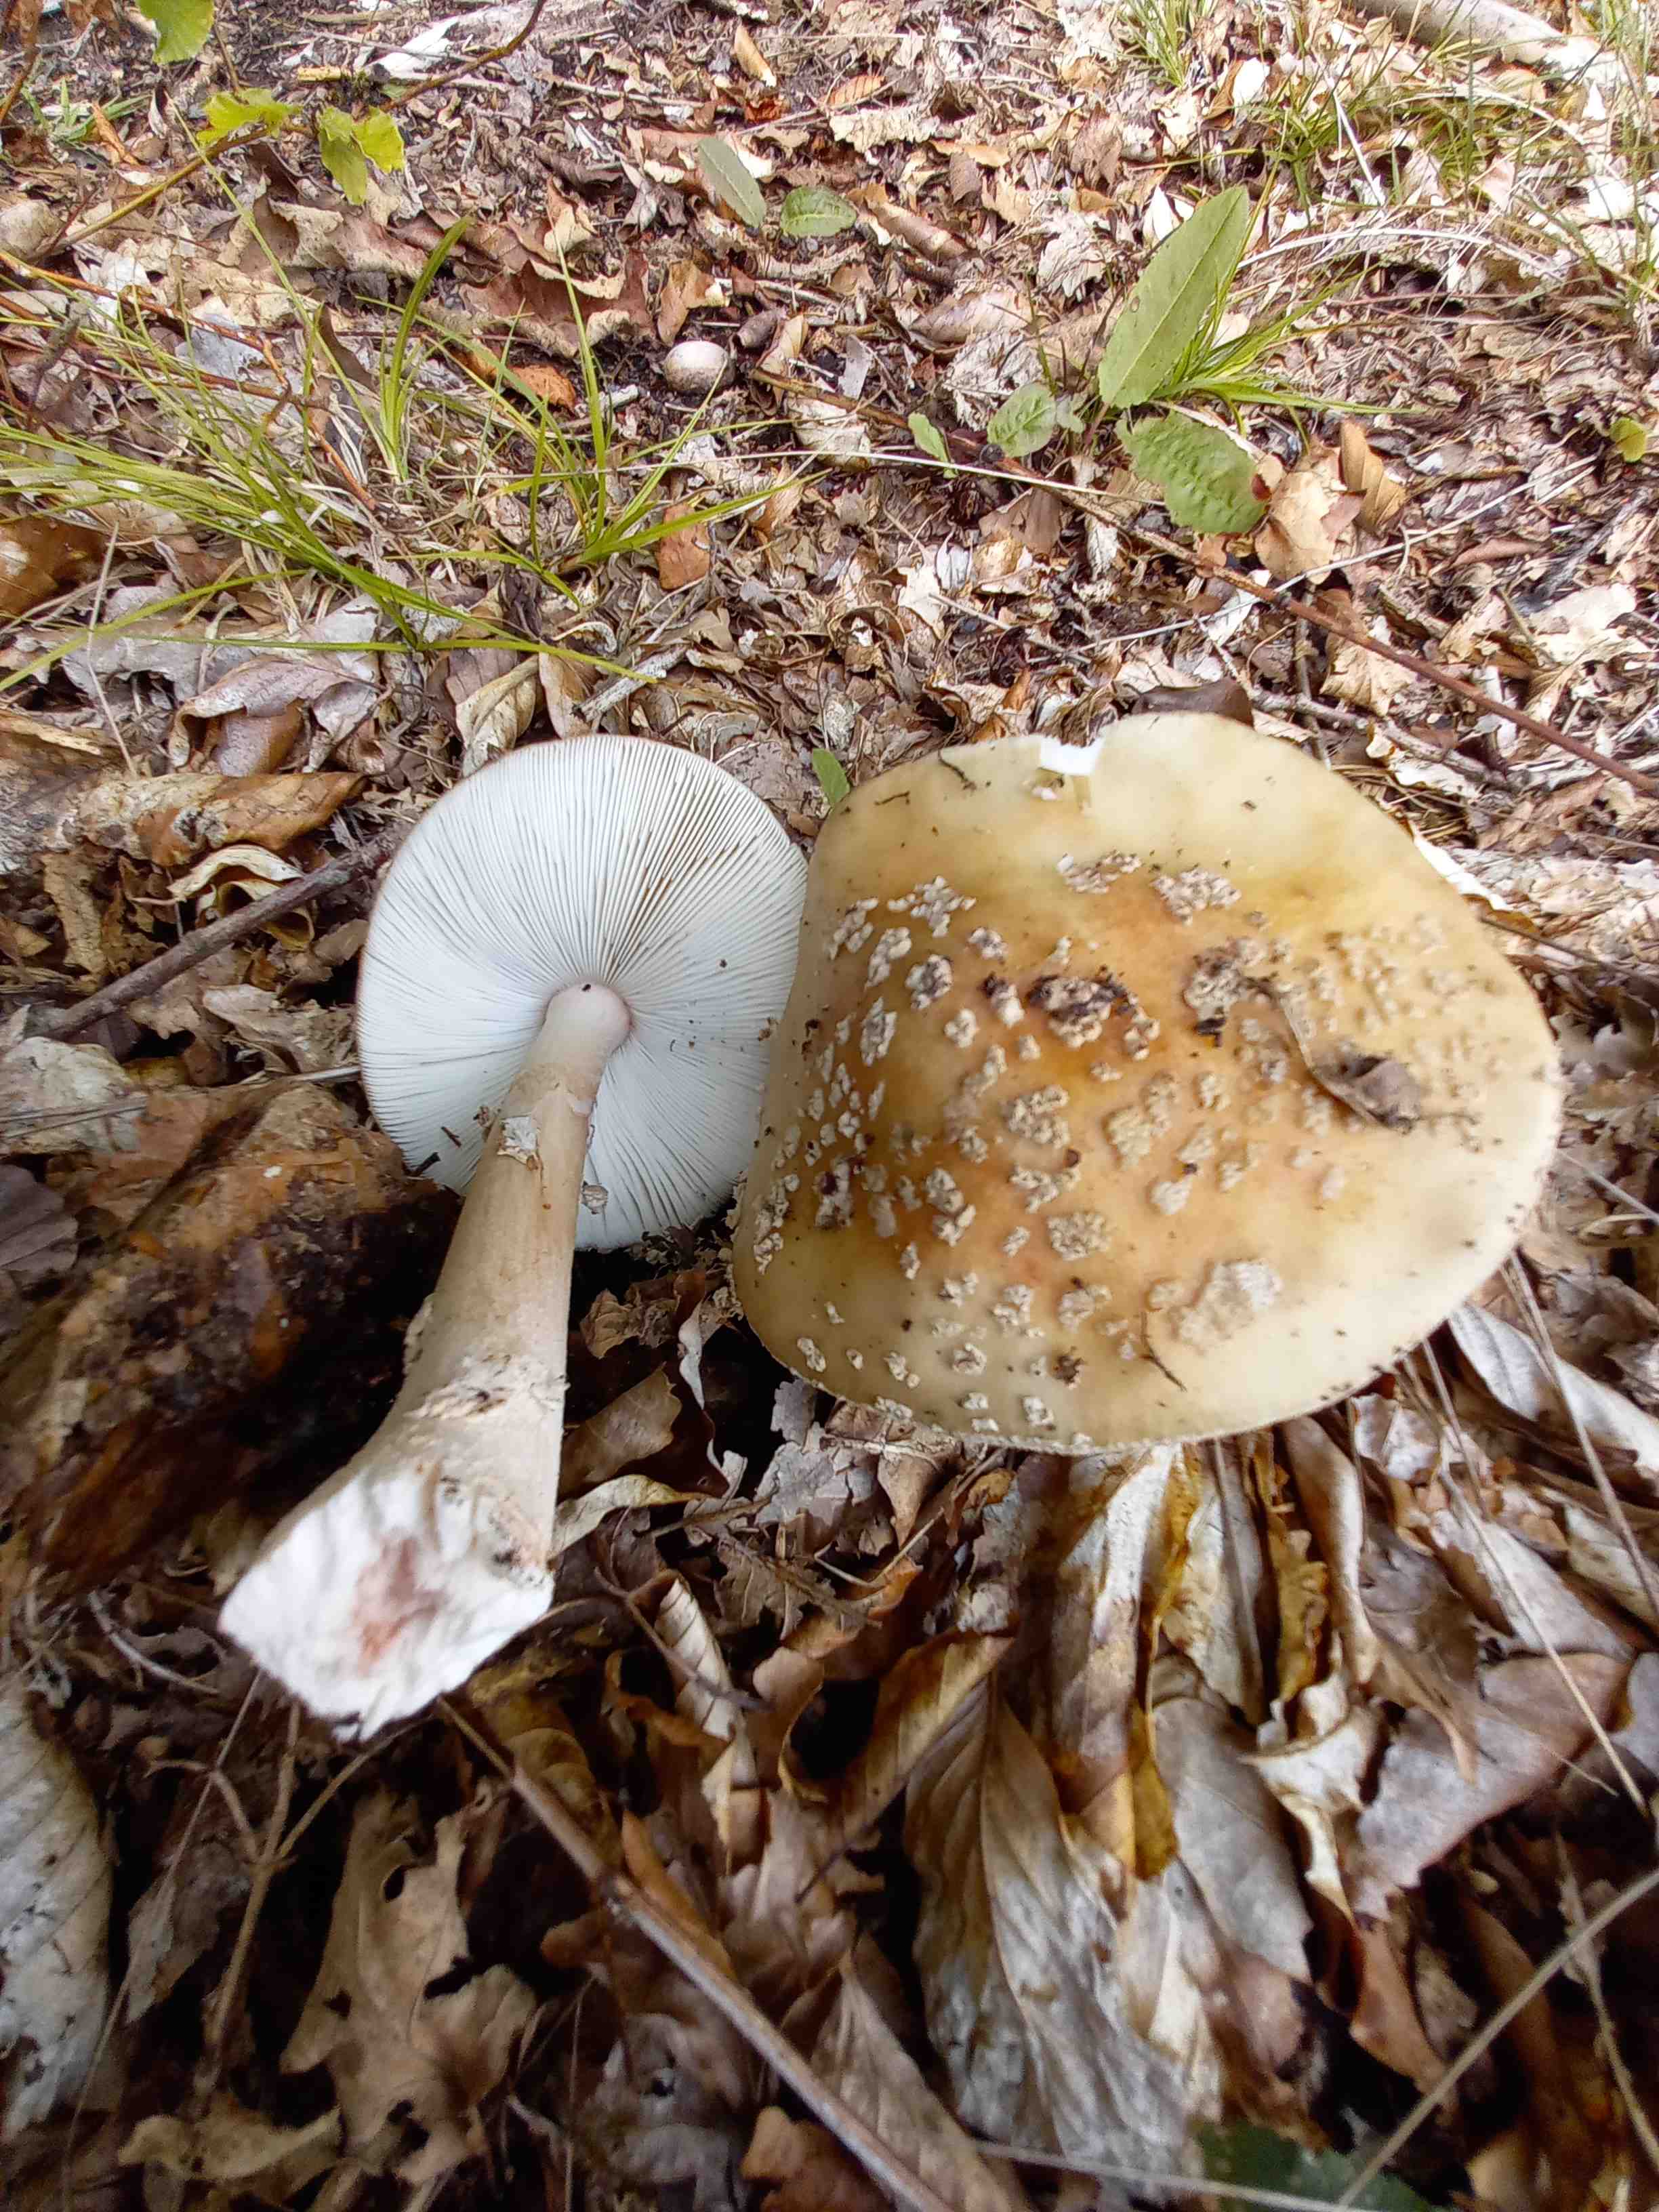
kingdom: Fungi
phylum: Basidiomycota
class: Agaricomycetes
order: Agaricales
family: Amanitaceae
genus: Amanita
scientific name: Amanita rubescens
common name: rødmende fluesvamp
